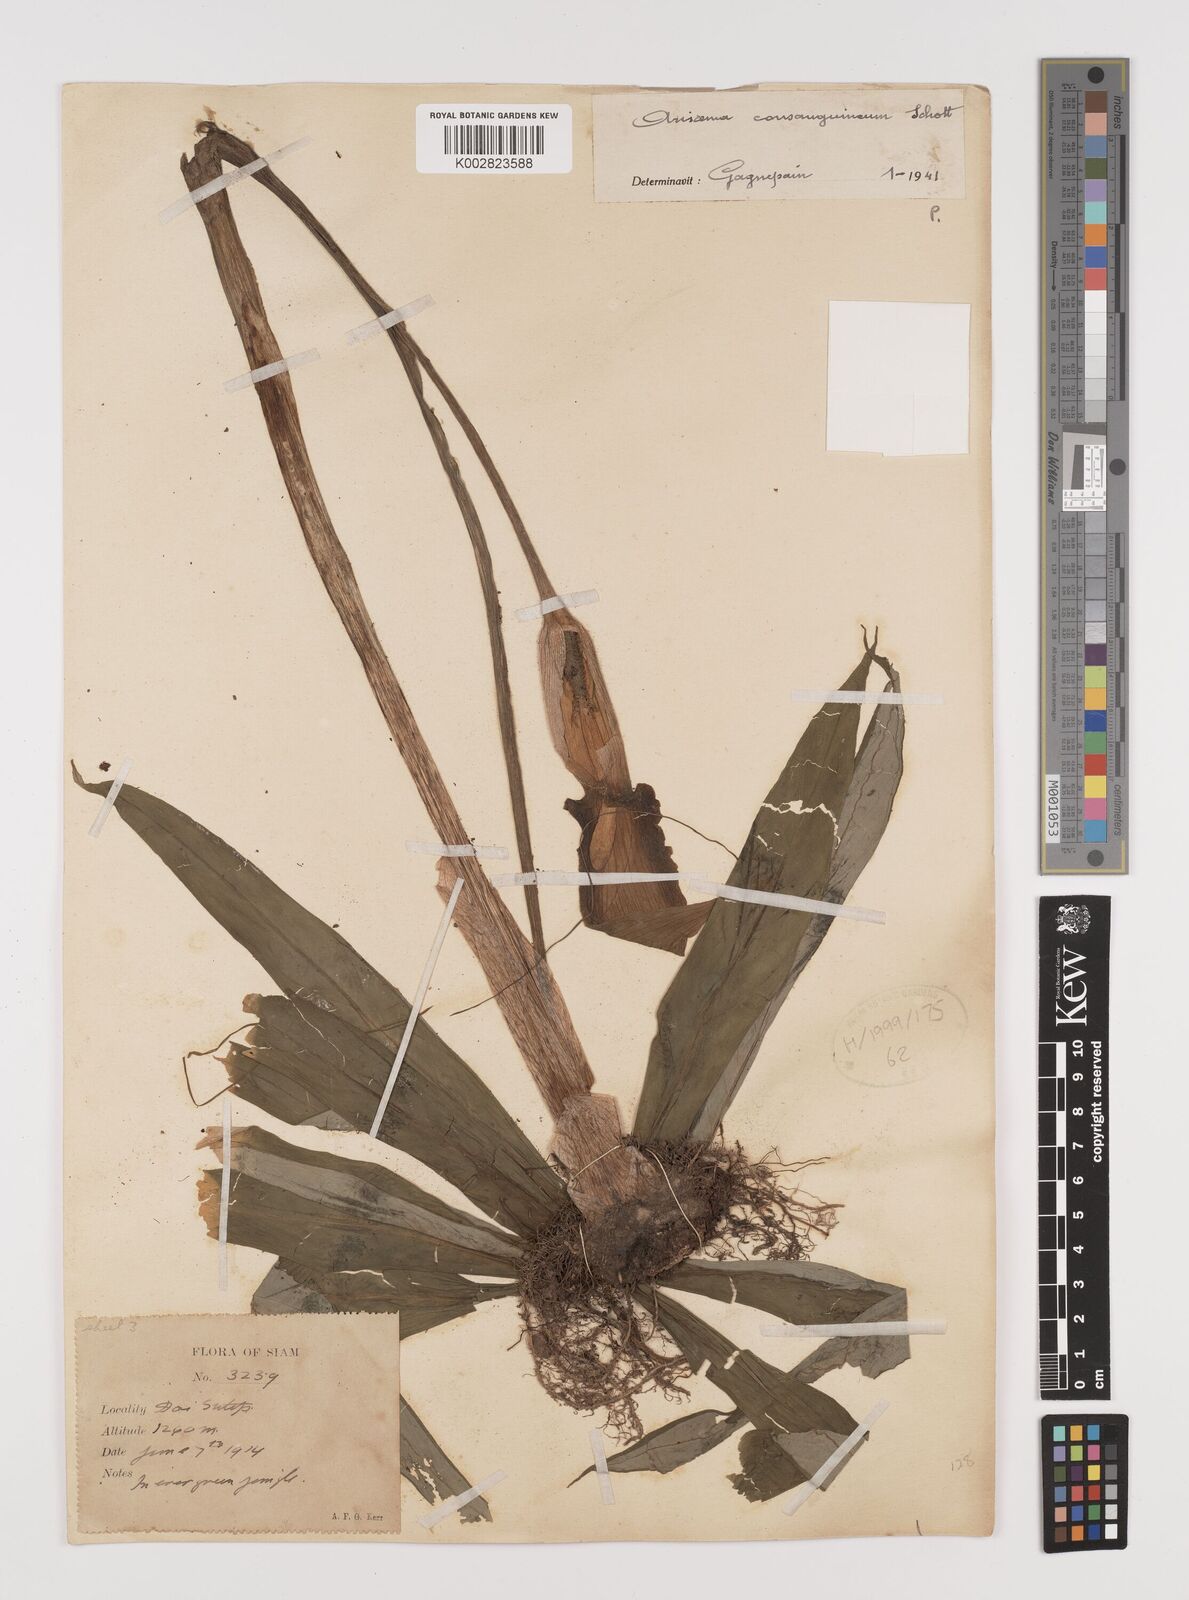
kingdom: Plantae
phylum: Tracheophyta
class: Liliopsida
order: Alismatales
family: Araceae
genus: Arisaema
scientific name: Arisaema consanguineum
